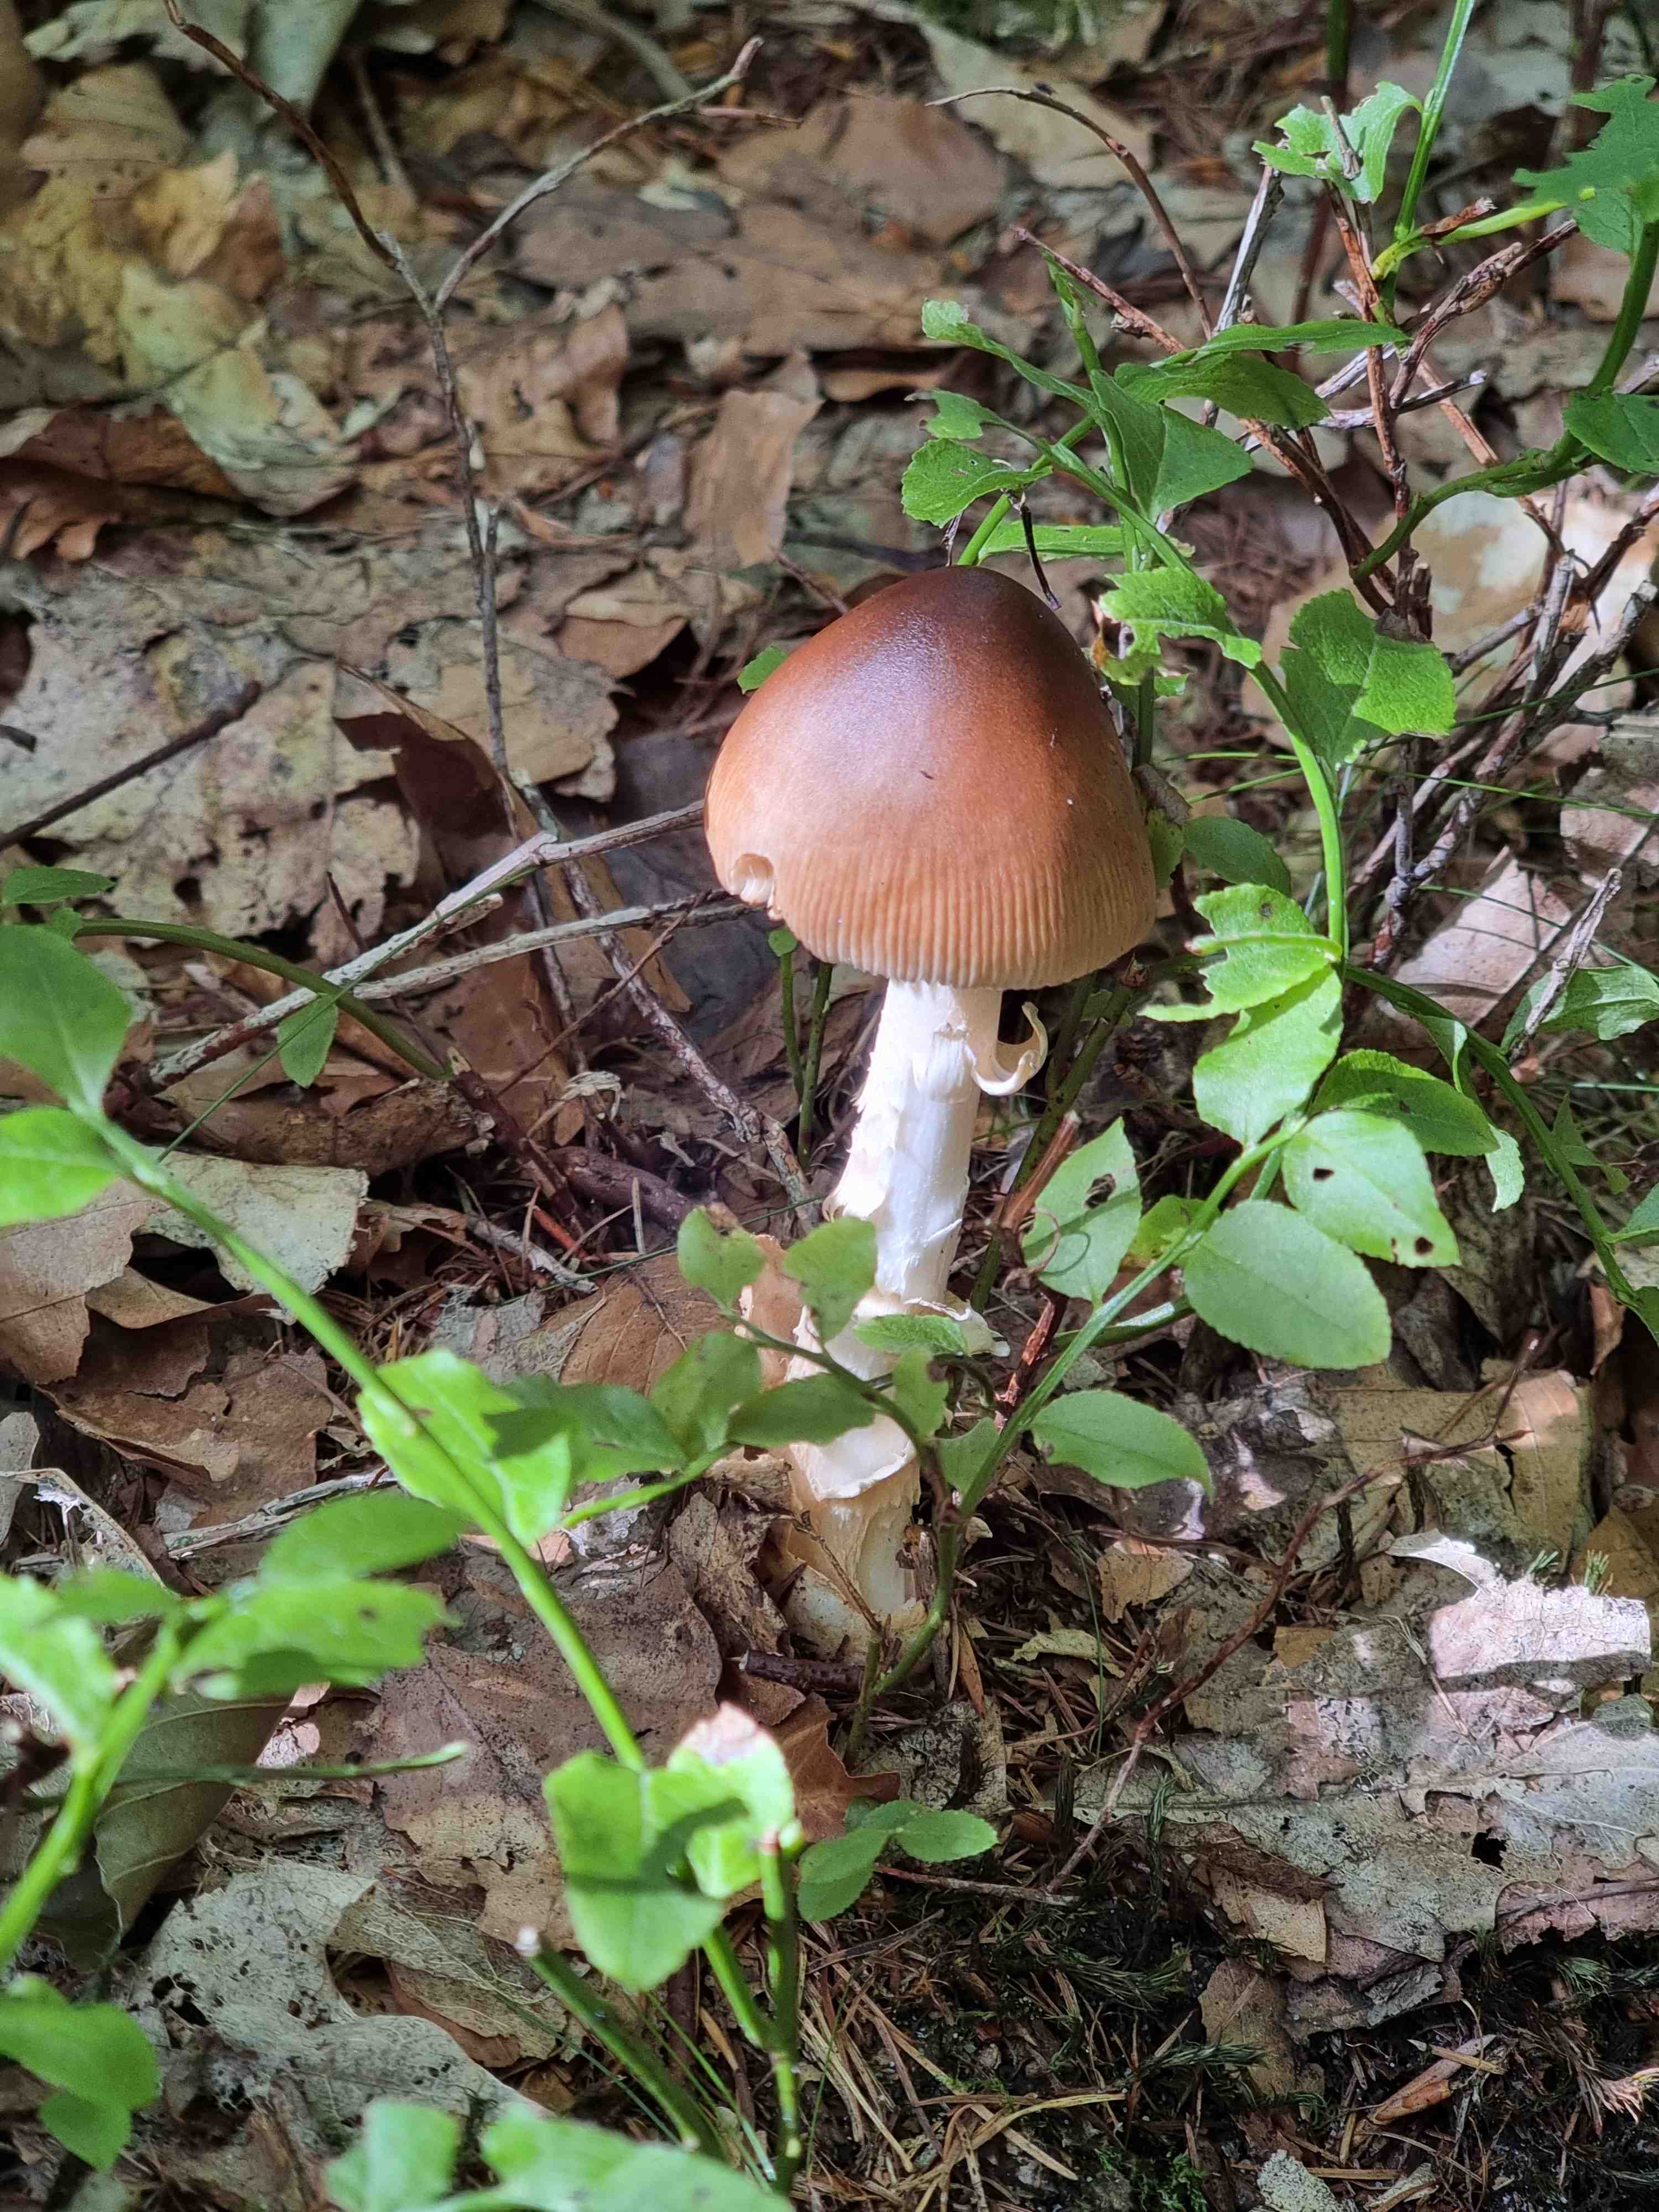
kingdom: Fungi
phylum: Basidiomycota
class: Agaricomycetes
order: Agaricales
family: Amanitaceae
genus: Amanita
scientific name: Amanita fulva
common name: brun kam-fluesvamp
